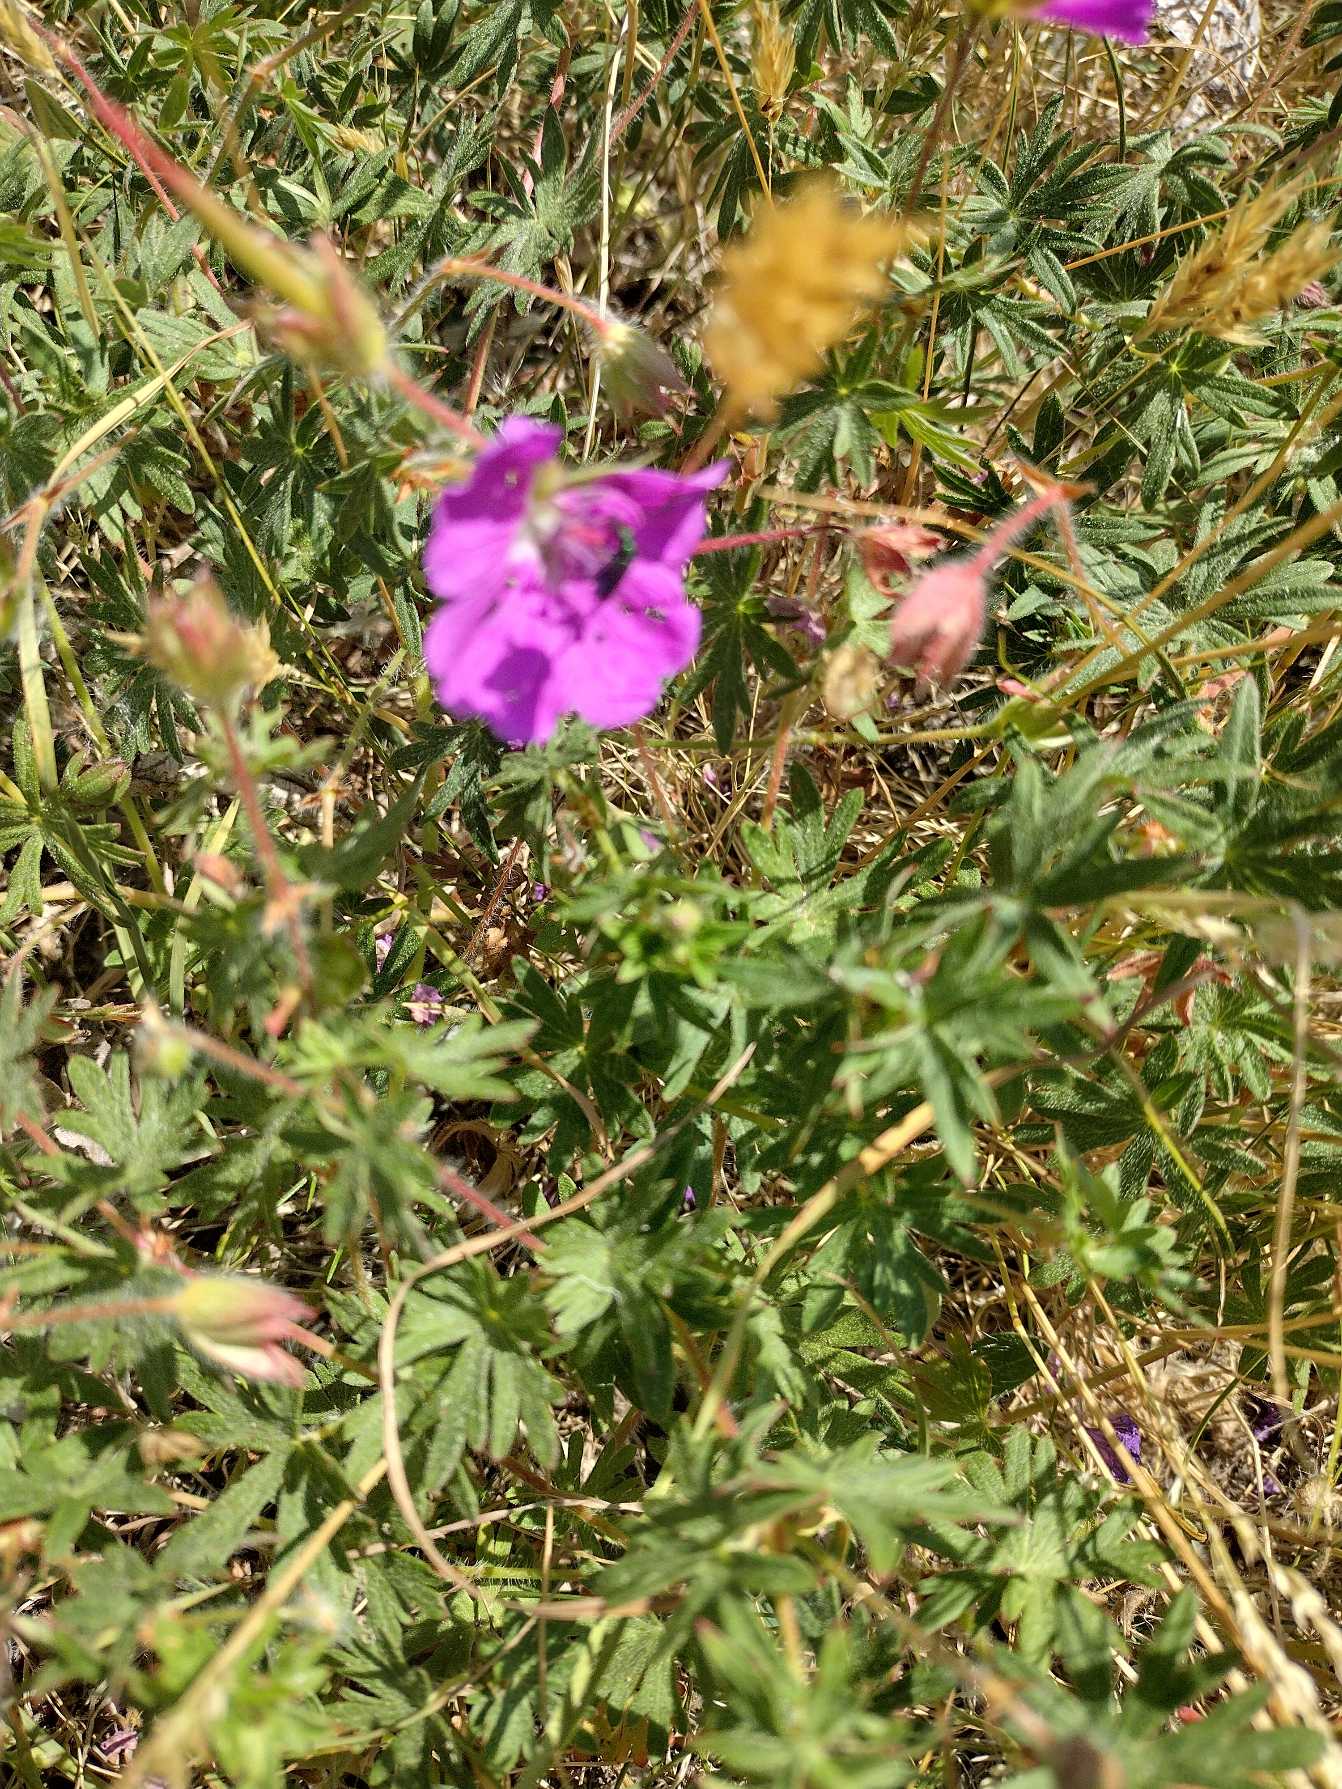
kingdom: Plantae
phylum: Tracheophyta
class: Magnoliopsida
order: Geraniales
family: Geraniaceae
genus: Geranium
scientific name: Geranium sanguineum
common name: Blodrød storkenæb
